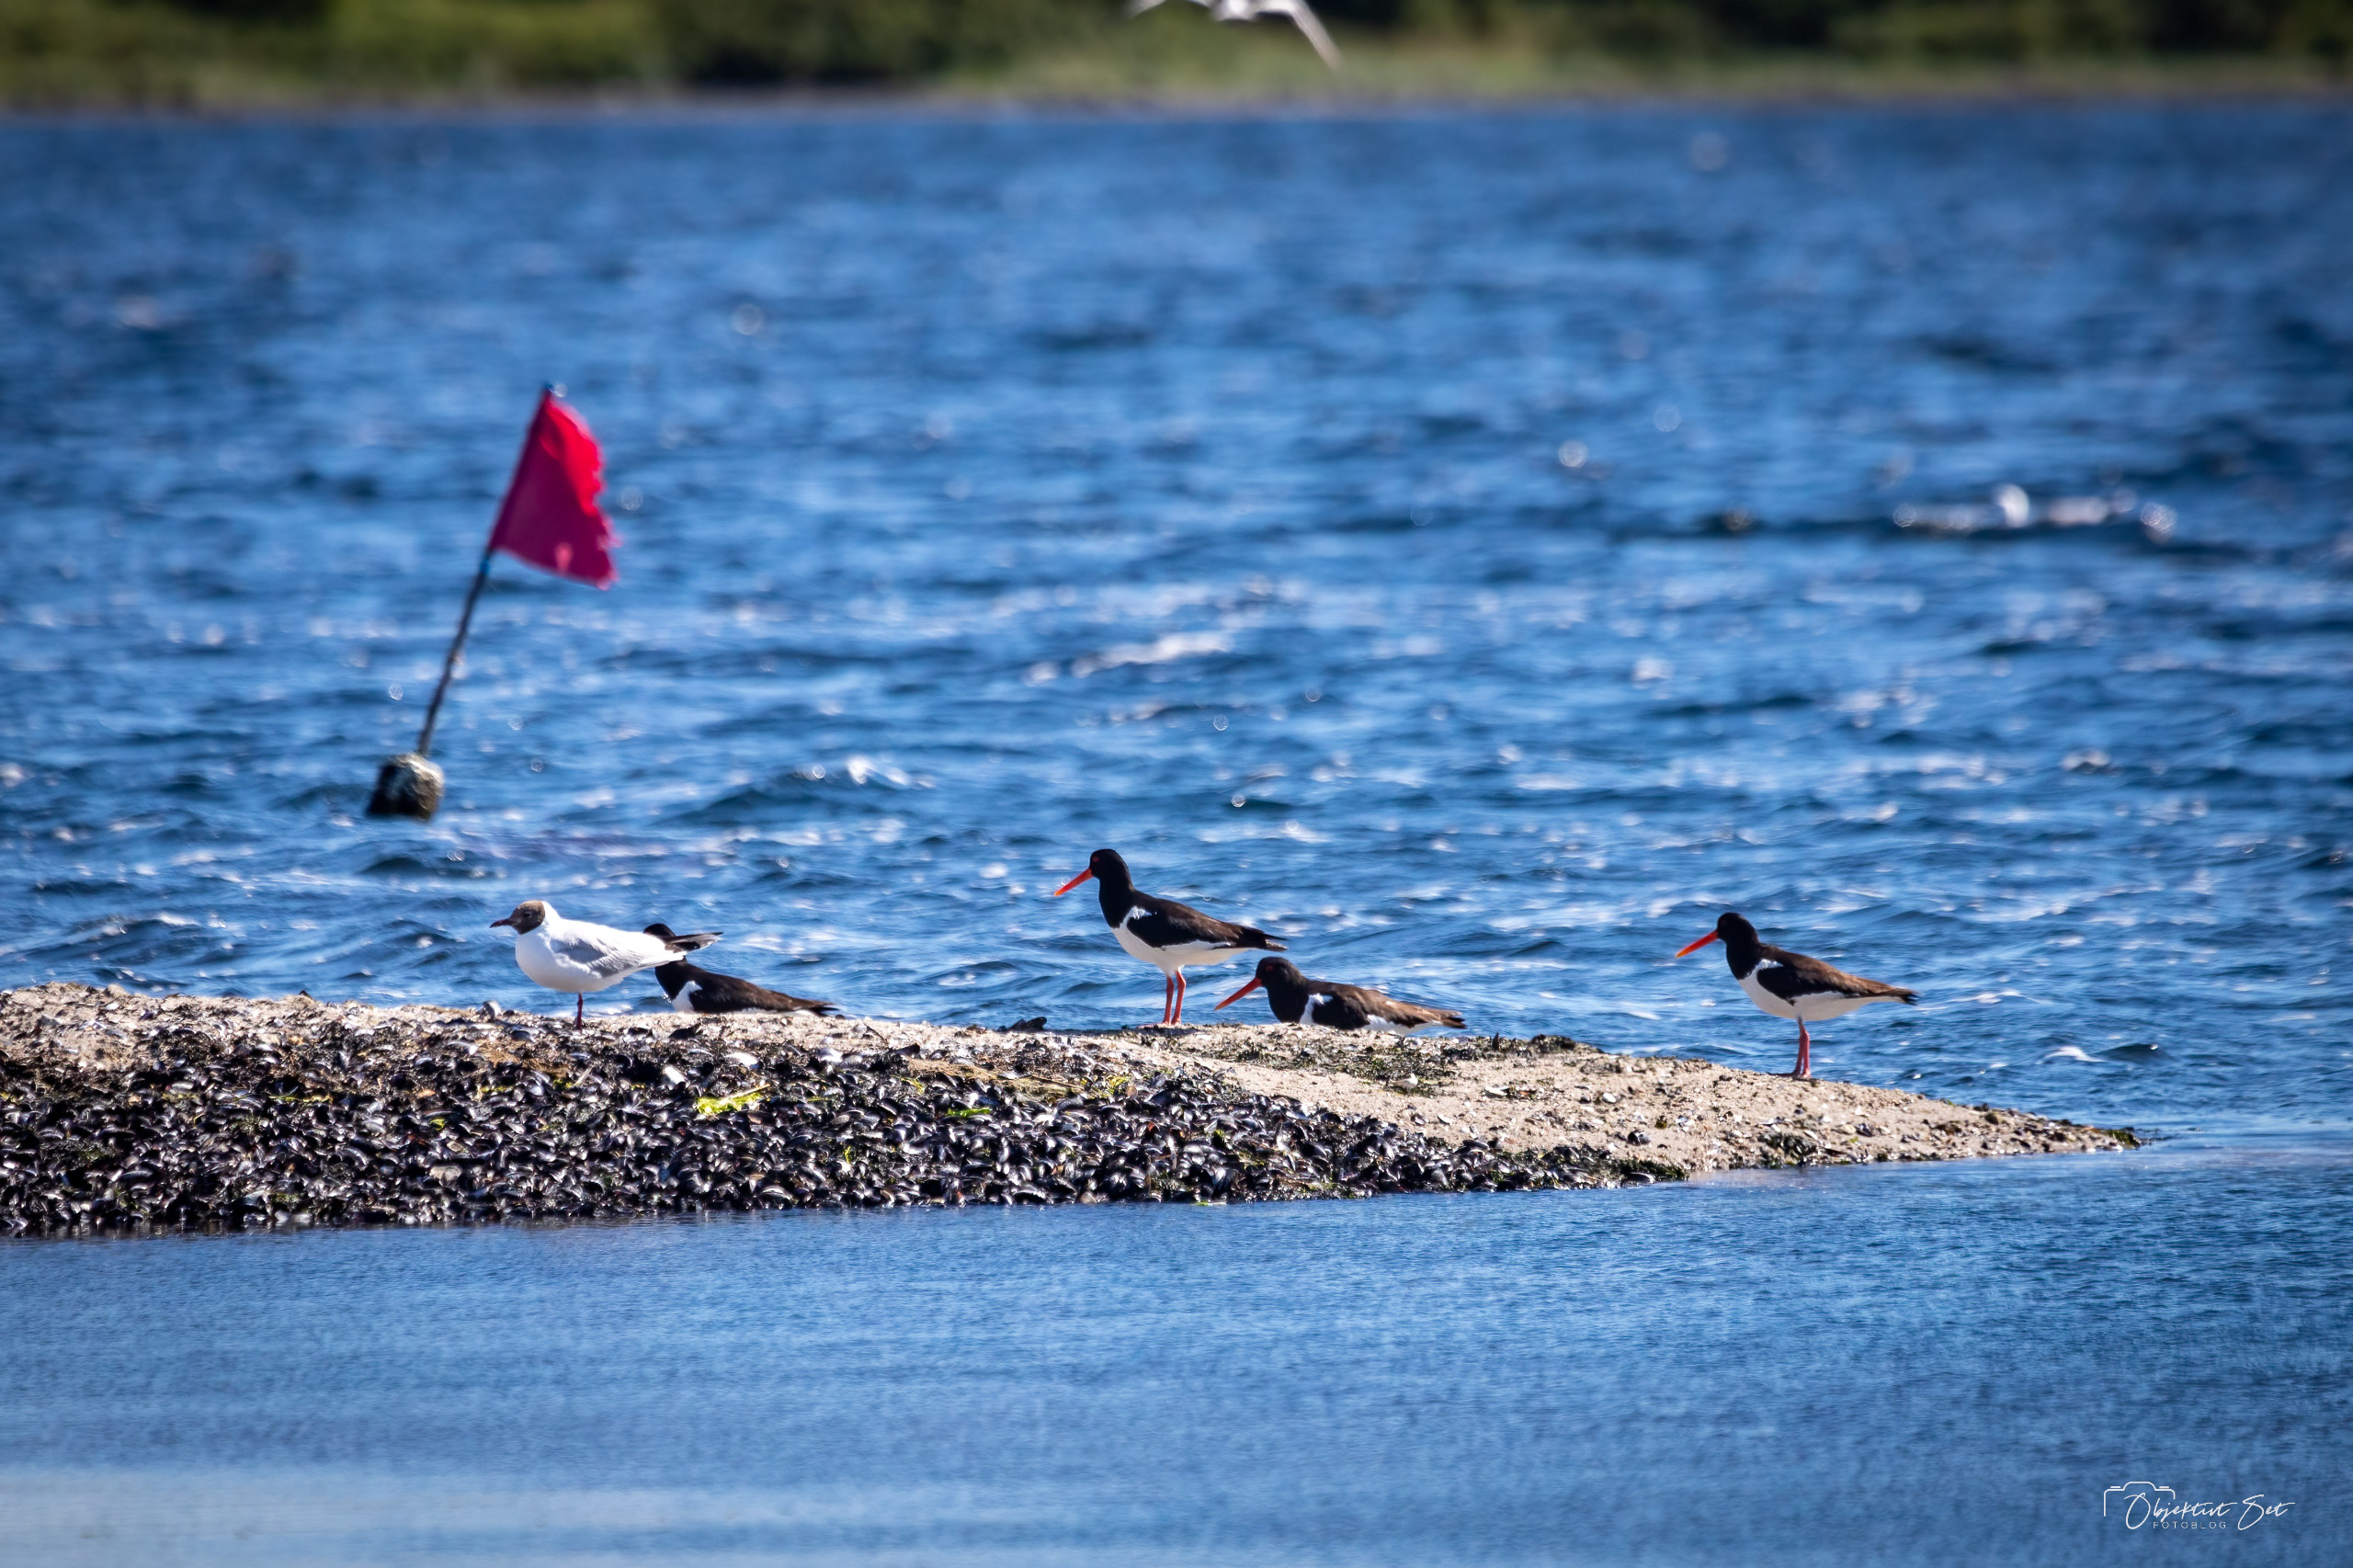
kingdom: Animalia
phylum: Chordata
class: Aves
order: Charadriiformes
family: Haematopodidae
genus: Haematopus
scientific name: Haematopus ostralegus
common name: Strandskade
